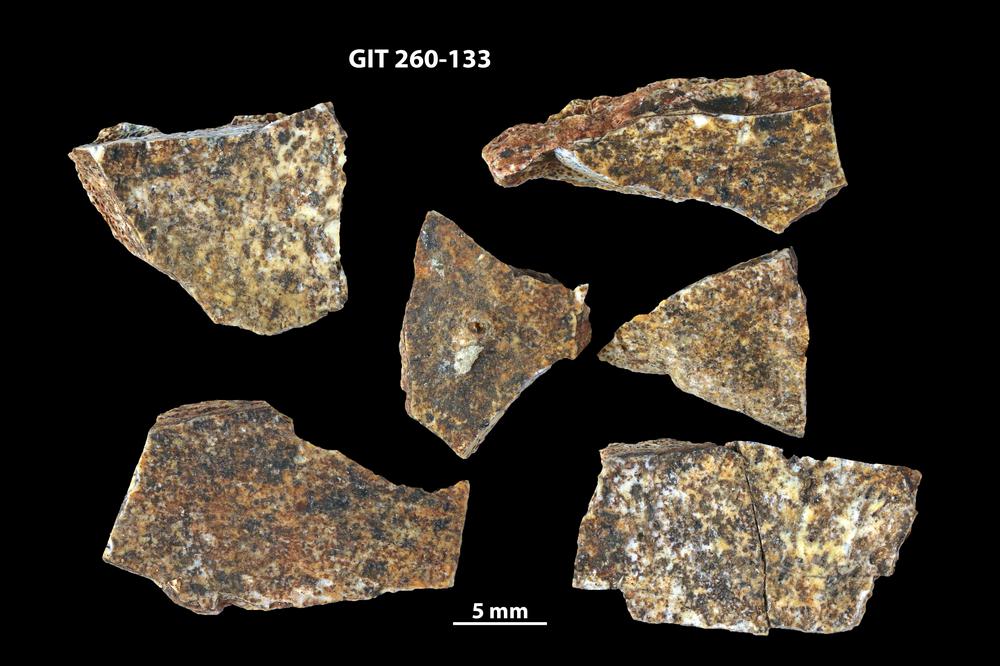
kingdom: Animalia
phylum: Chordata
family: Homostiidae
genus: Homostius
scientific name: Homostius
